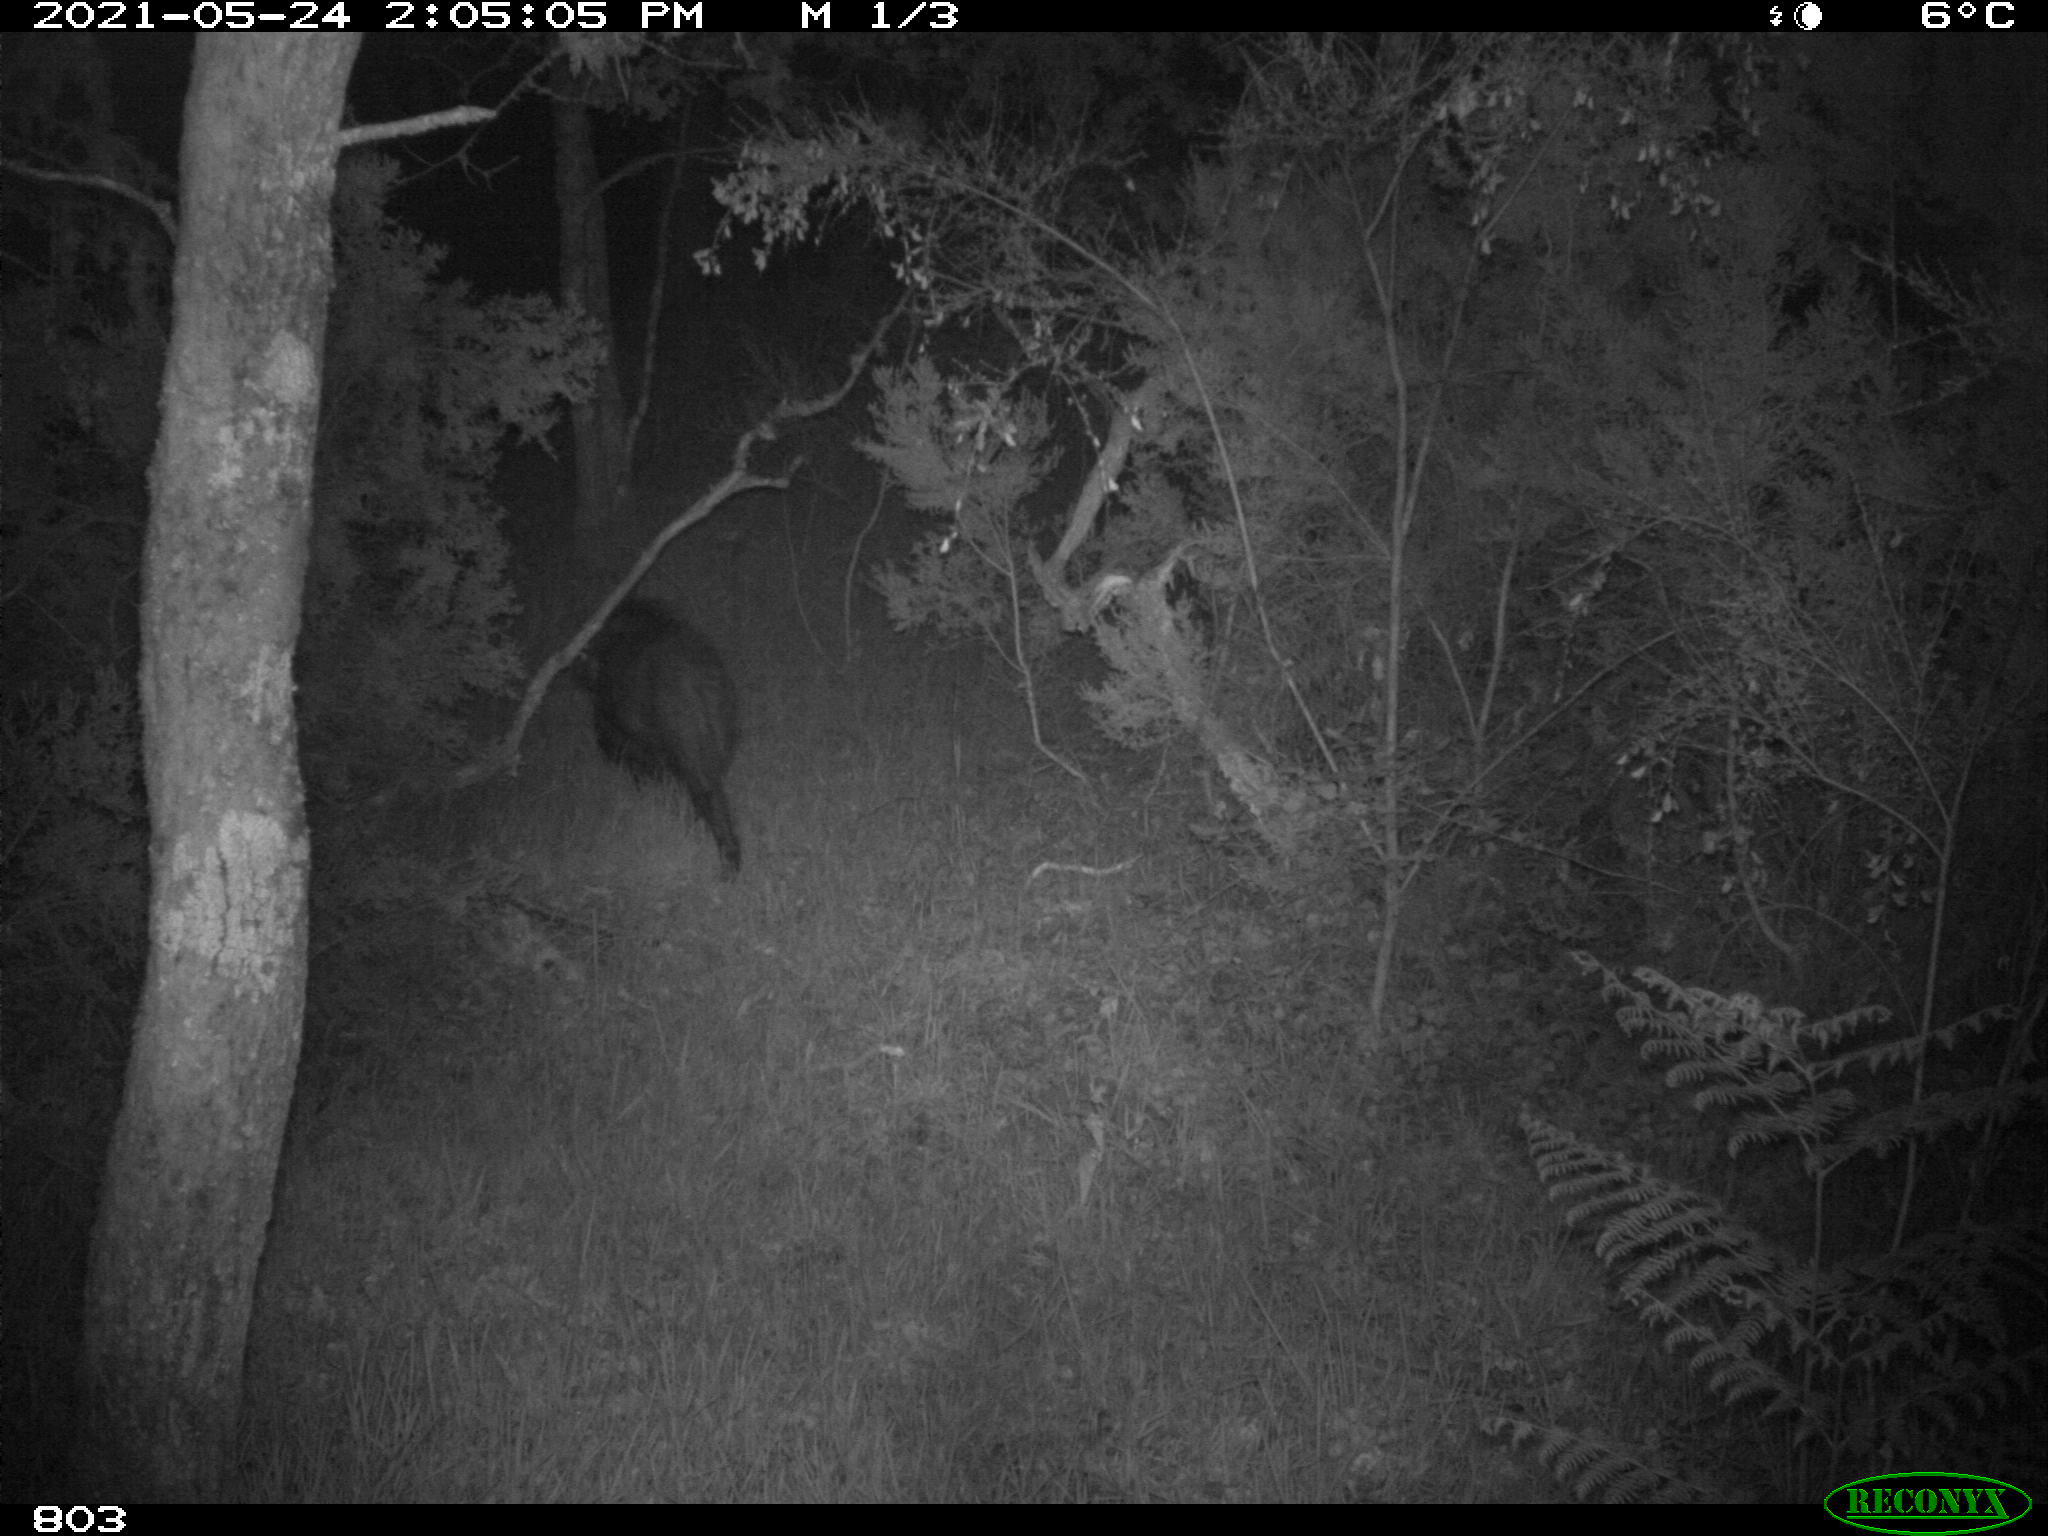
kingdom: Animalia
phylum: Chordata
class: Mammalia
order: Artiodactyla
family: Suidae
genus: Sus
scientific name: Sus scrofa
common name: Wild boar
